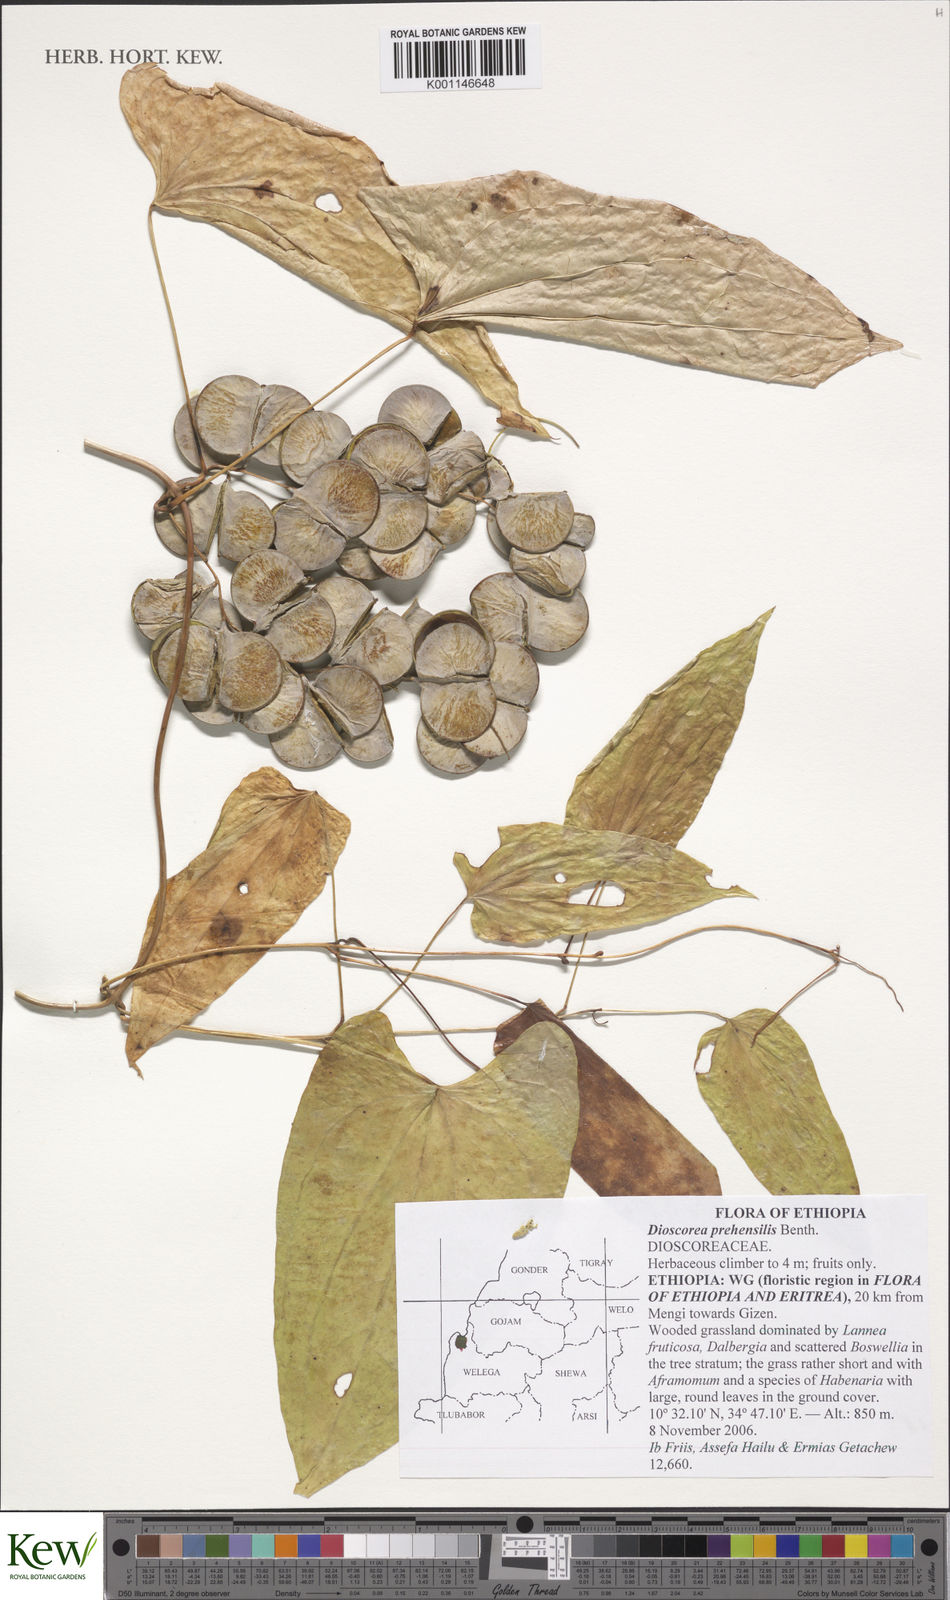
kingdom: Plantae
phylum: Tracheophyta
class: Liliopsida
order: Dioscoreales
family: Dioscoreaceae
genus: Dioscorea
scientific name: Dioscorea praehensilis
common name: Bush yam
